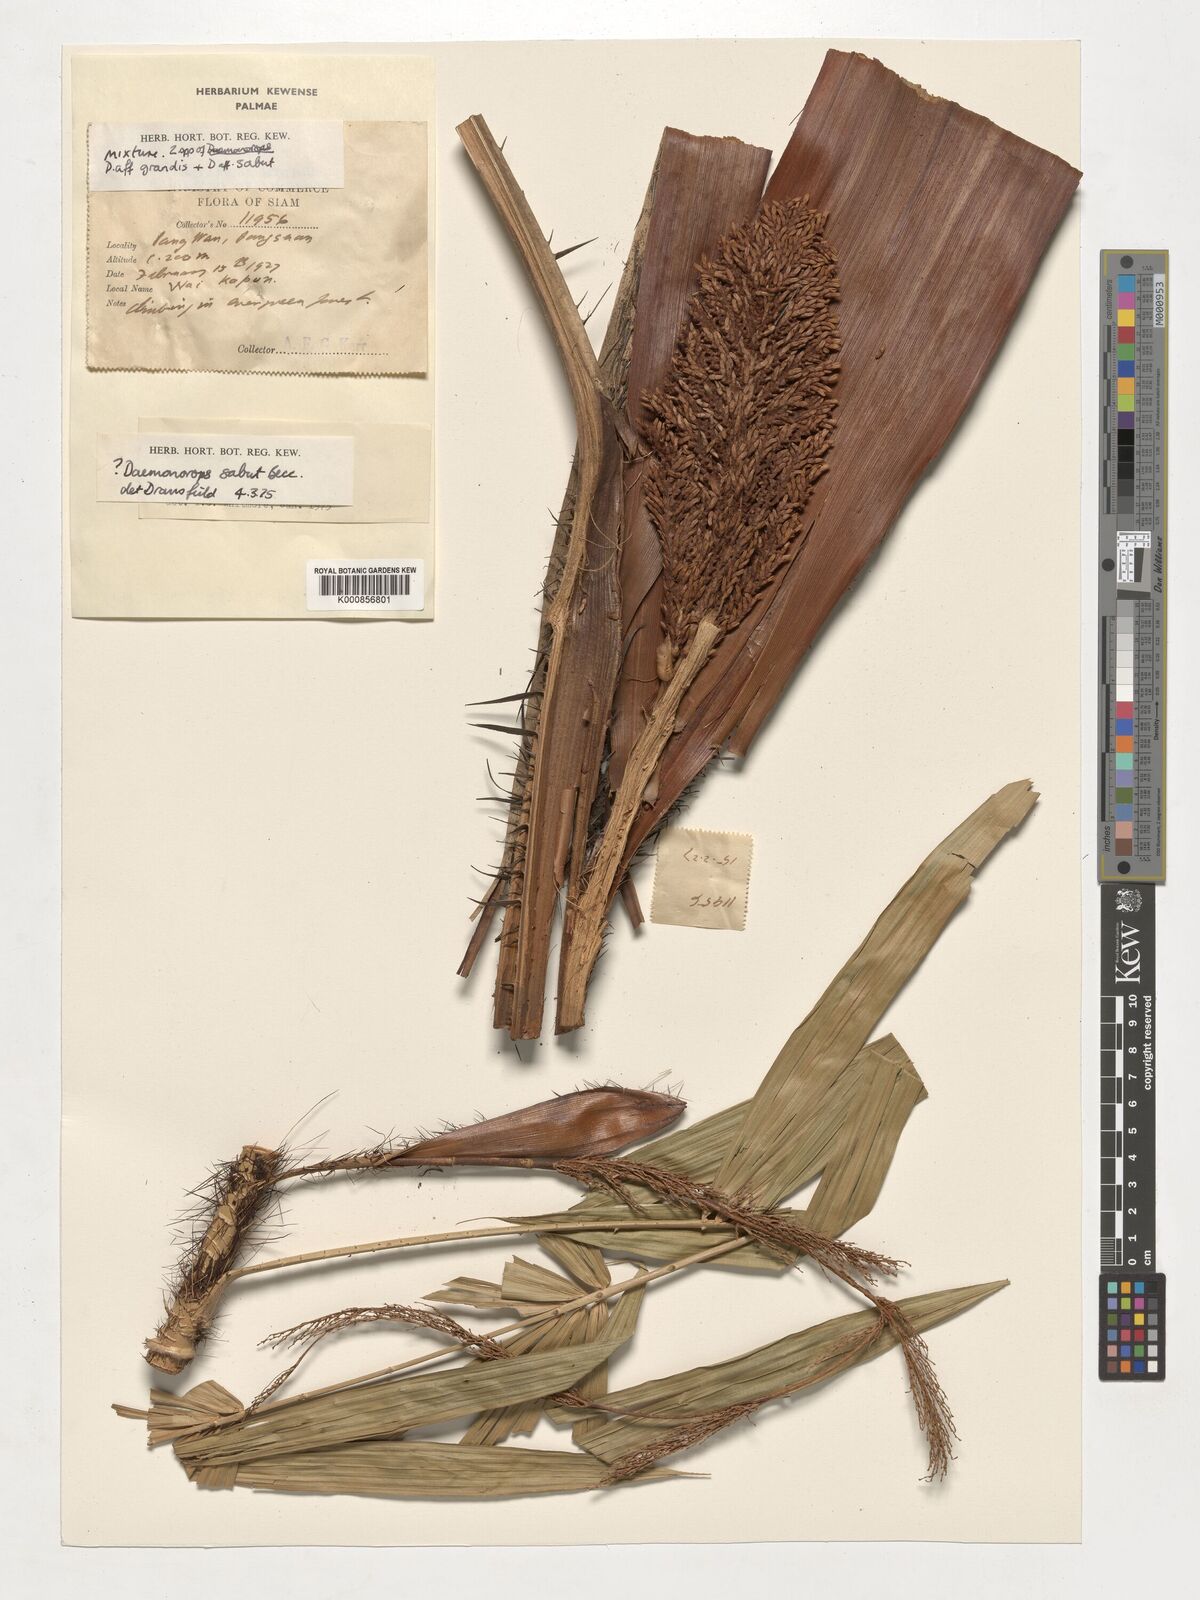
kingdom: Plantae
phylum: Tracheophyta
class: Liliopsida
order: Arecales
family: Arecaceae
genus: Calamus
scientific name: Calamus crinitus
